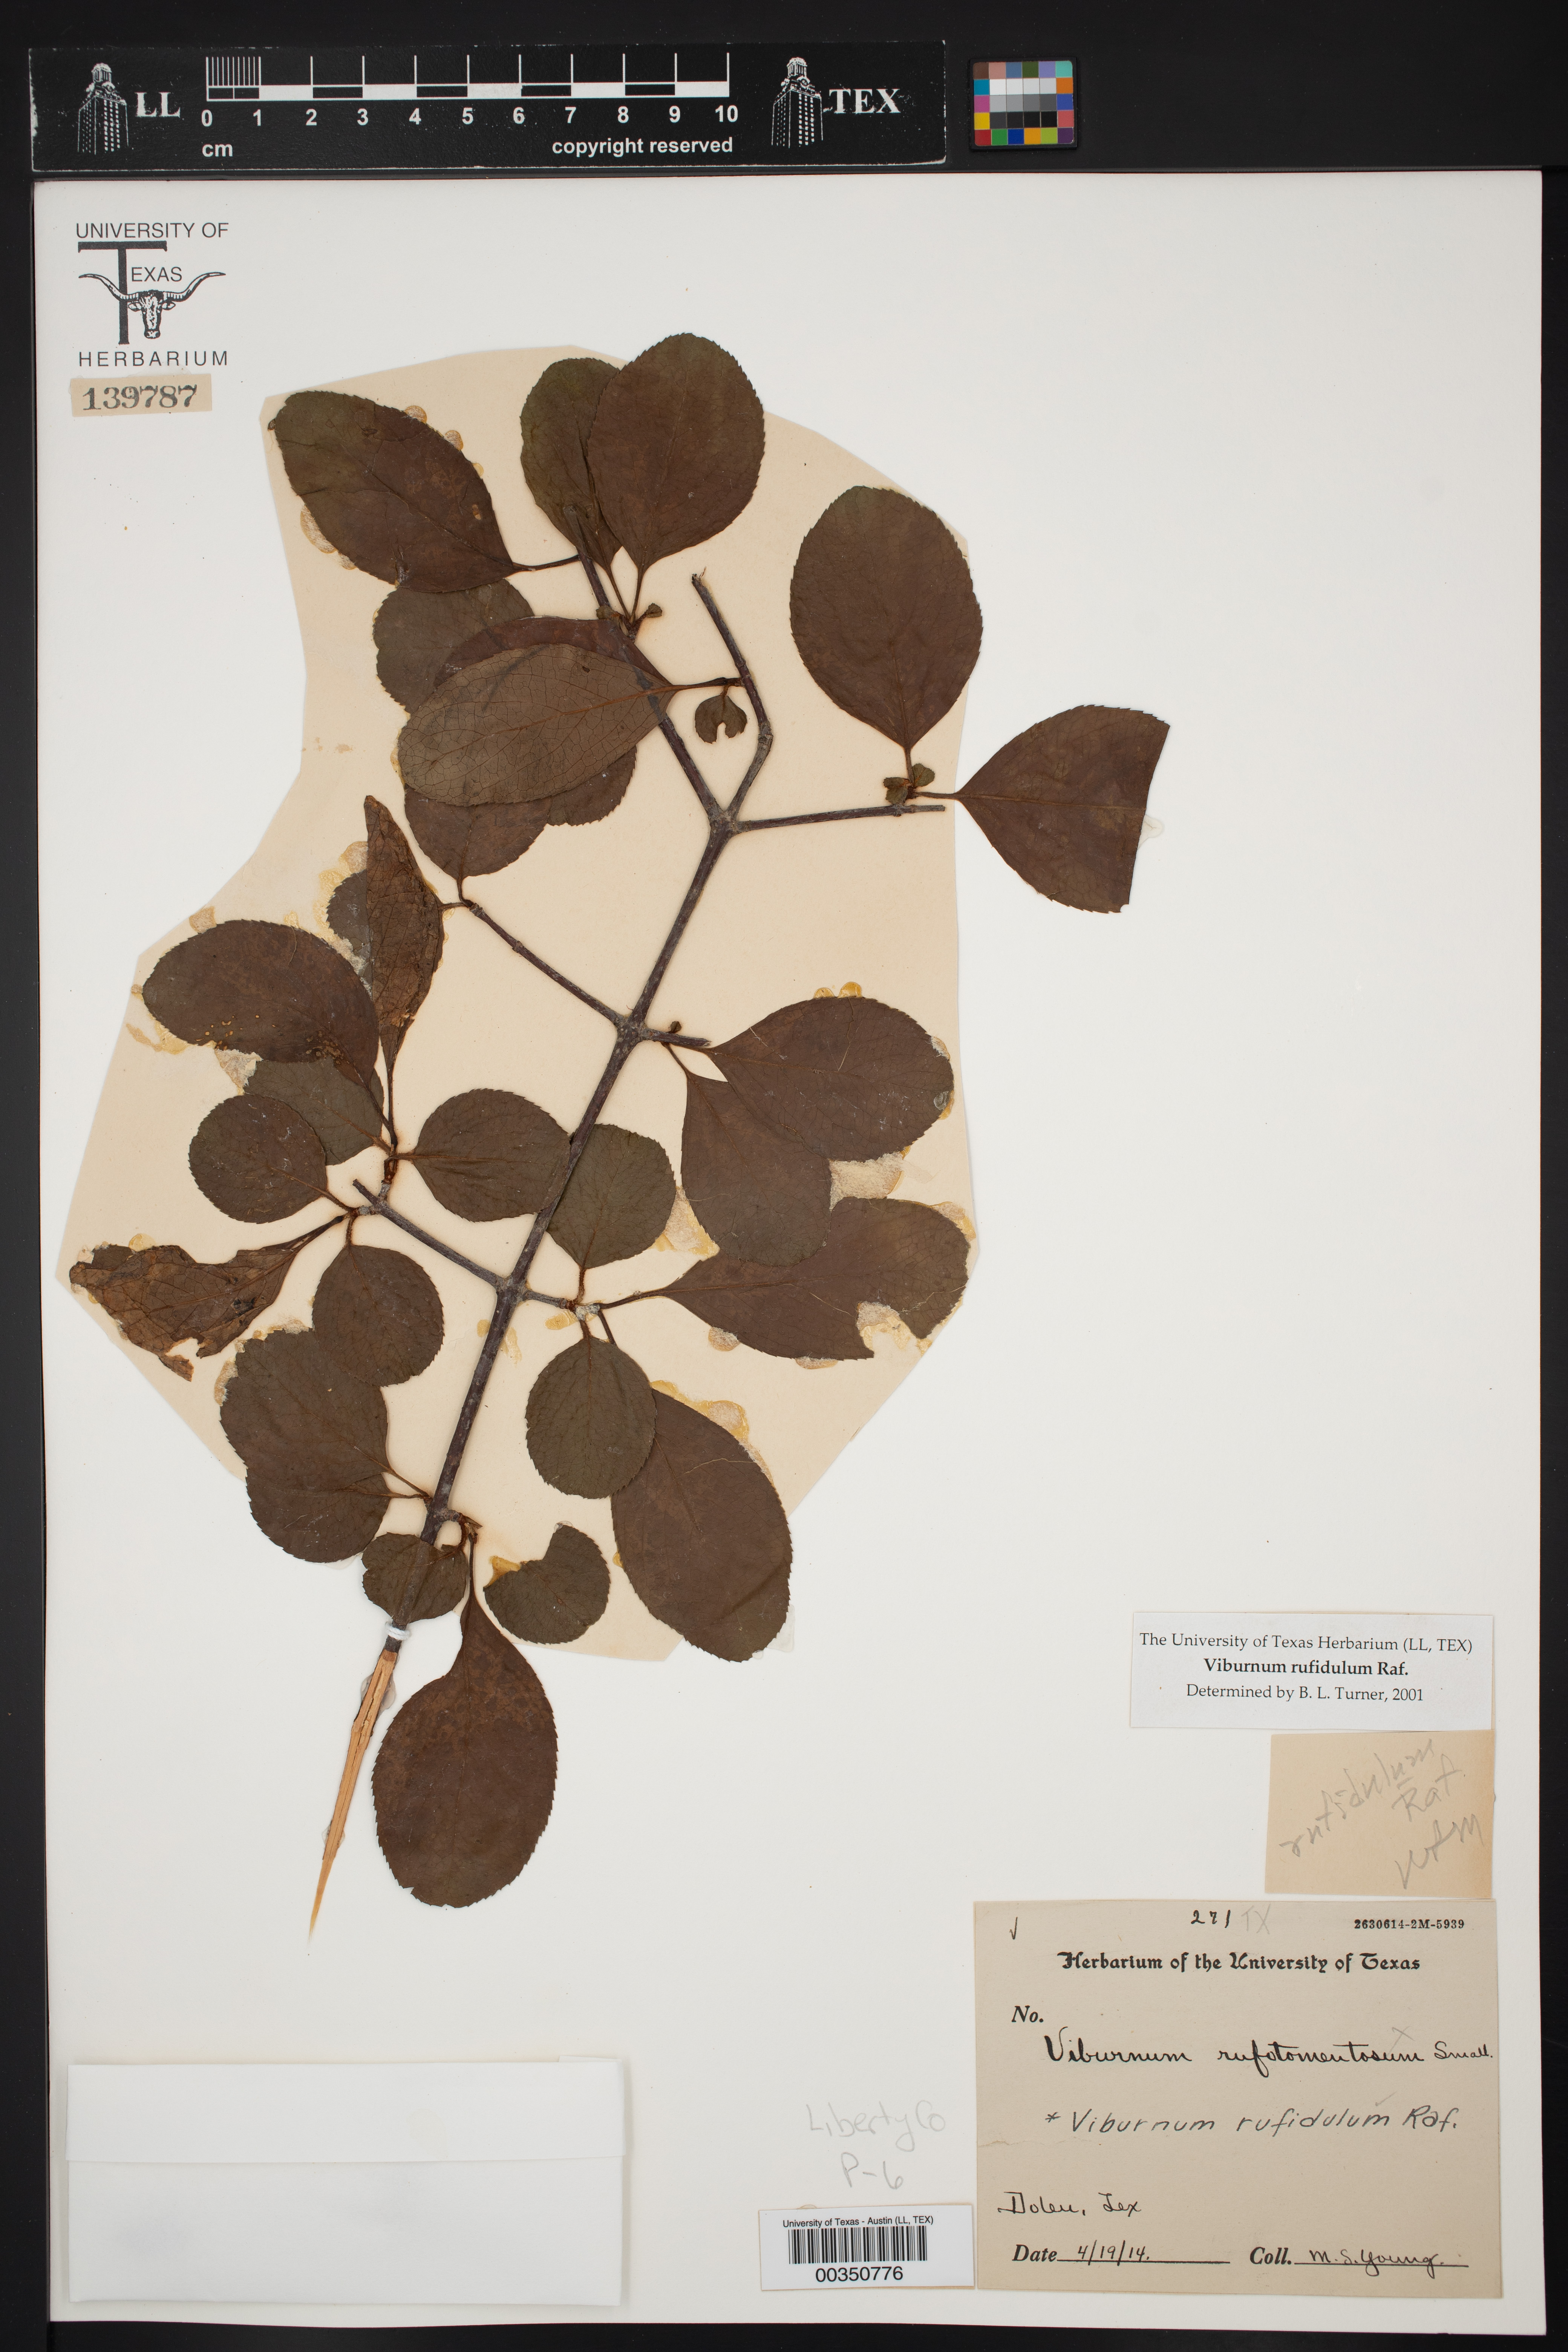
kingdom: Plantae
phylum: Tracheophyta
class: Magnoliopsida
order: Dipsacales
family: Viburnaceae
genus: Viburnum
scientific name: Viburnum rufidulum
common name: Blue haw
